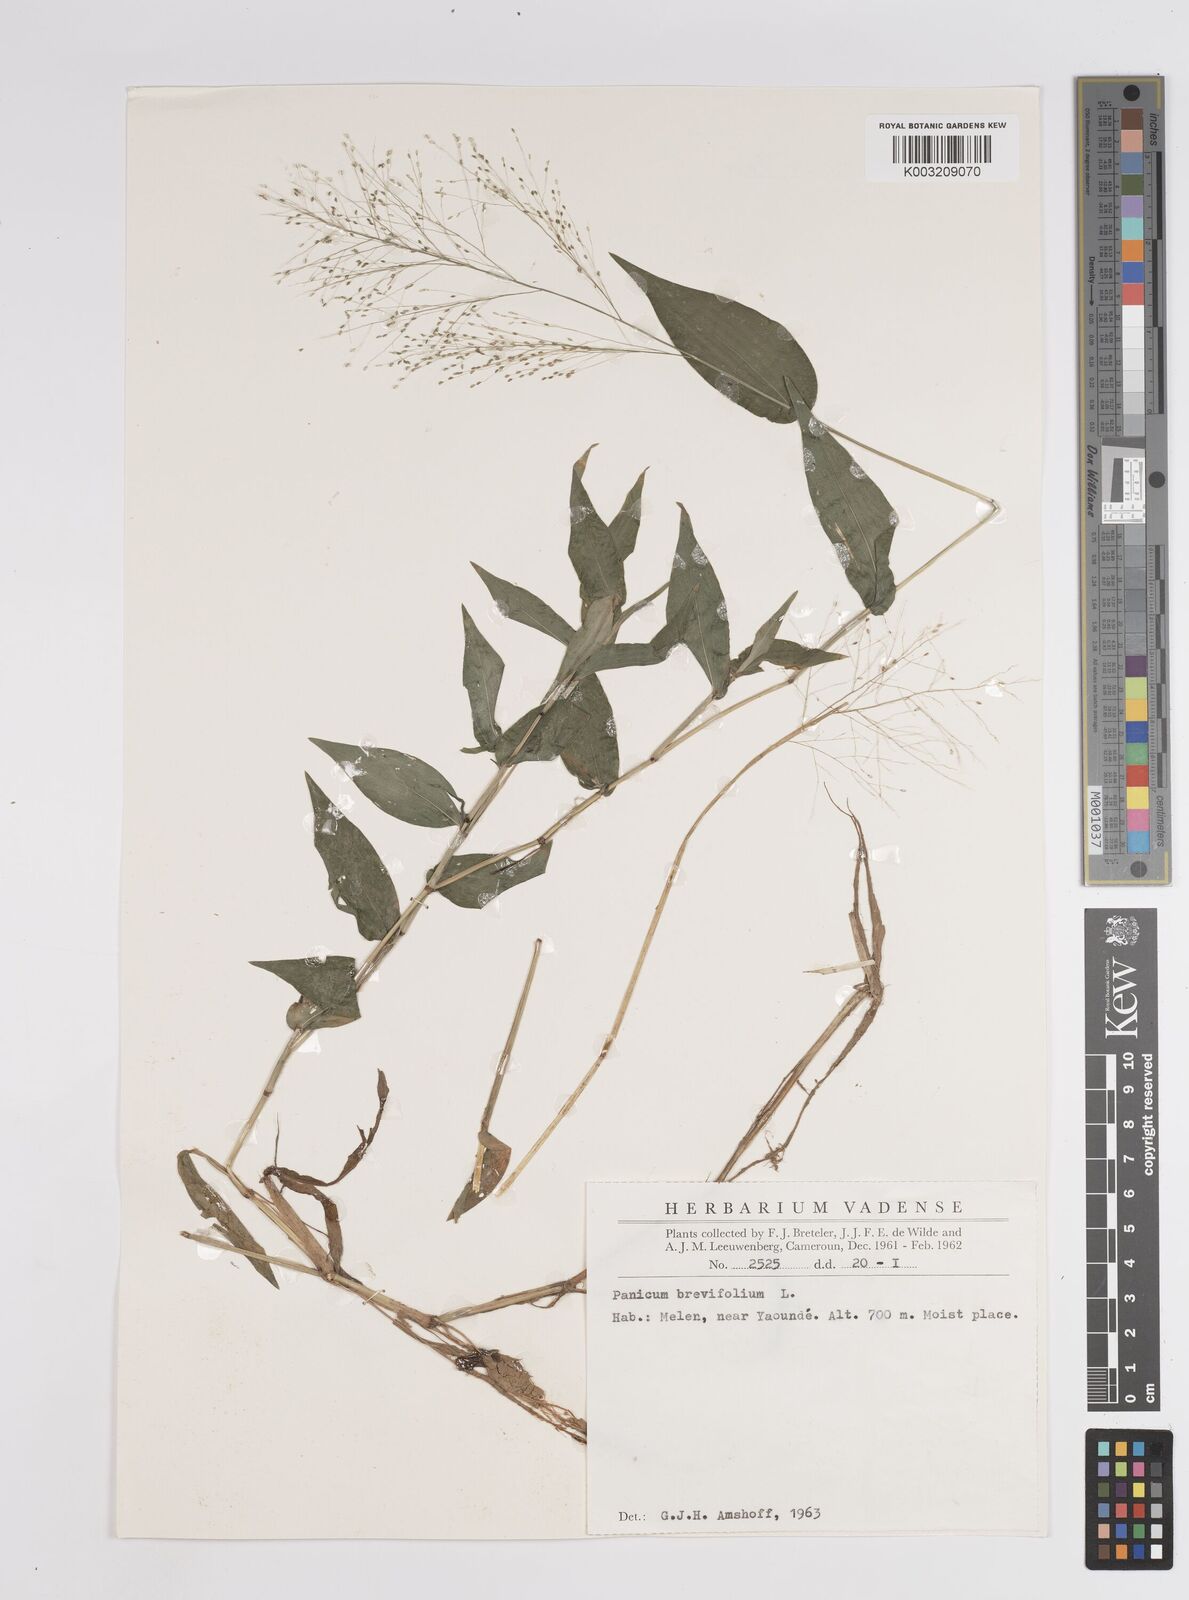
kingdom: Plantae
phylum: Tracheophyta
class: Liliopsida
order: Poales
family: Poaceae
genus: Panicum
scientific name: Panicum brevifolium
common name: Shortleaf panic grass
